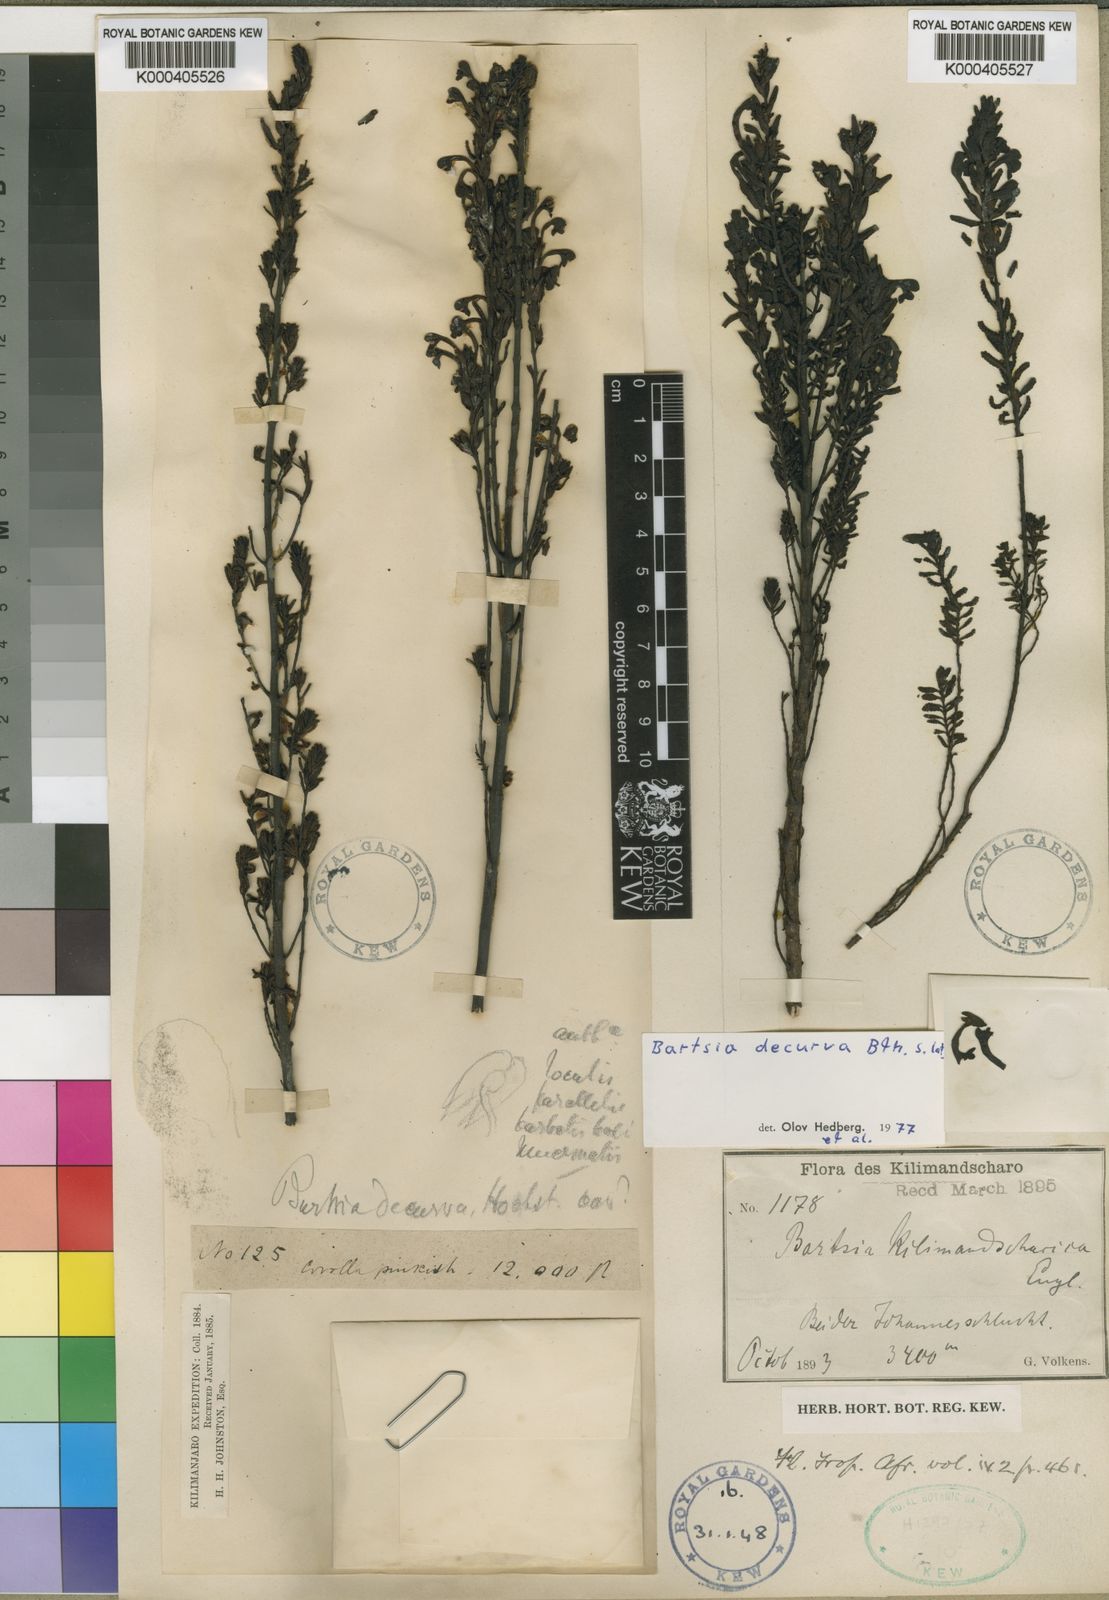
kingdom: Plantae
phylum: Tracheophyta
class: Magnoliopsida
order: Lamiales
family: Orobanchaceae
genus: Hedbergia
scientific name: Hedbergia decurva
